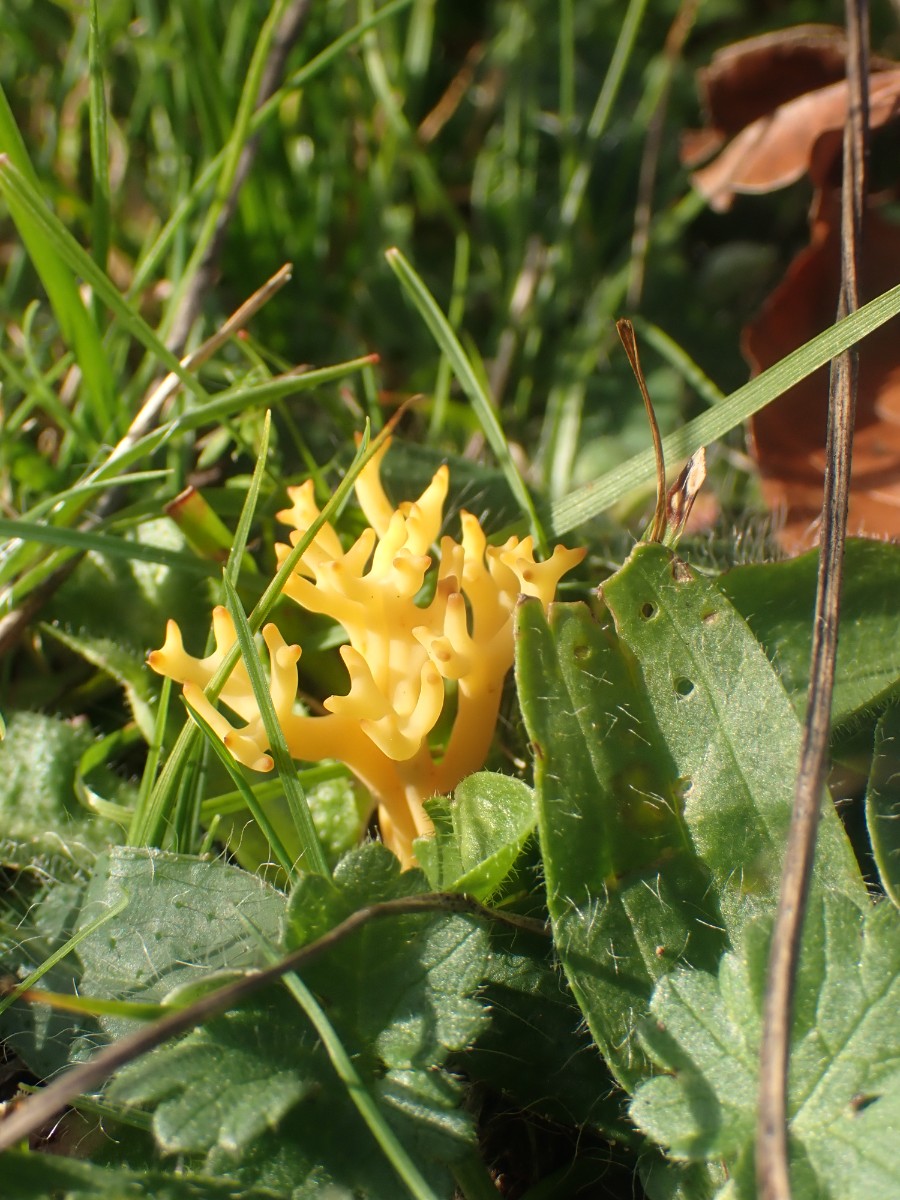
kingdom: Fungi
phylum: Basidiomycota
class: Agaricomycetes
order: Agaricales
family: Clavariaceae
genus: Clavulinopsis
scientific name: Clavulinopsis corniculata
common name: eng-køllesvamp
